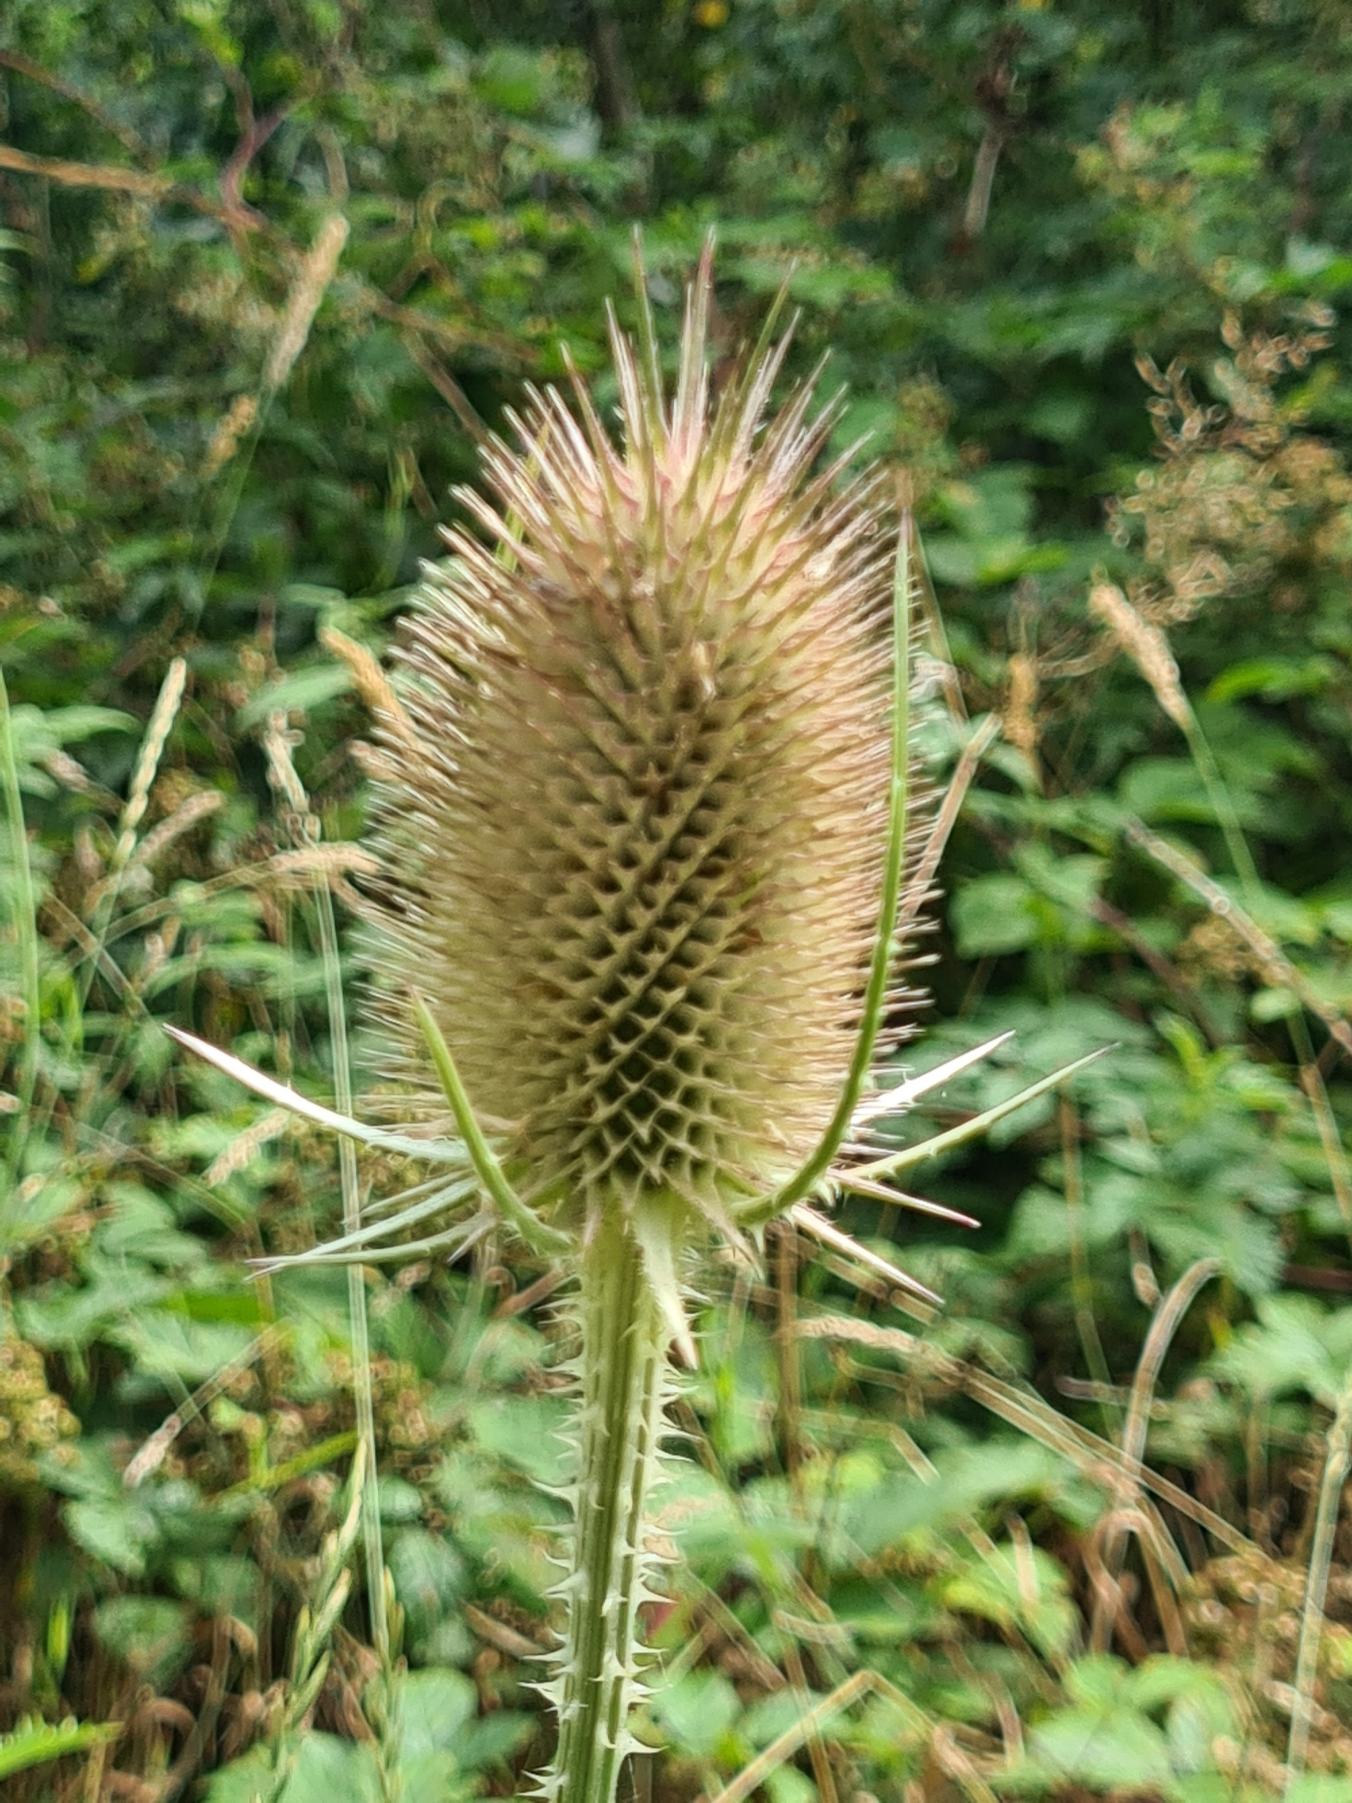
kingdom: Plantae
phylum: Tracheophyta
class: Magnoliopsida
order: Dipsacales
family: Caprifoliaceae
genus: Dipsacus
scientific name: Dipsacus fullonum
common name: Gærde-kartebolle
